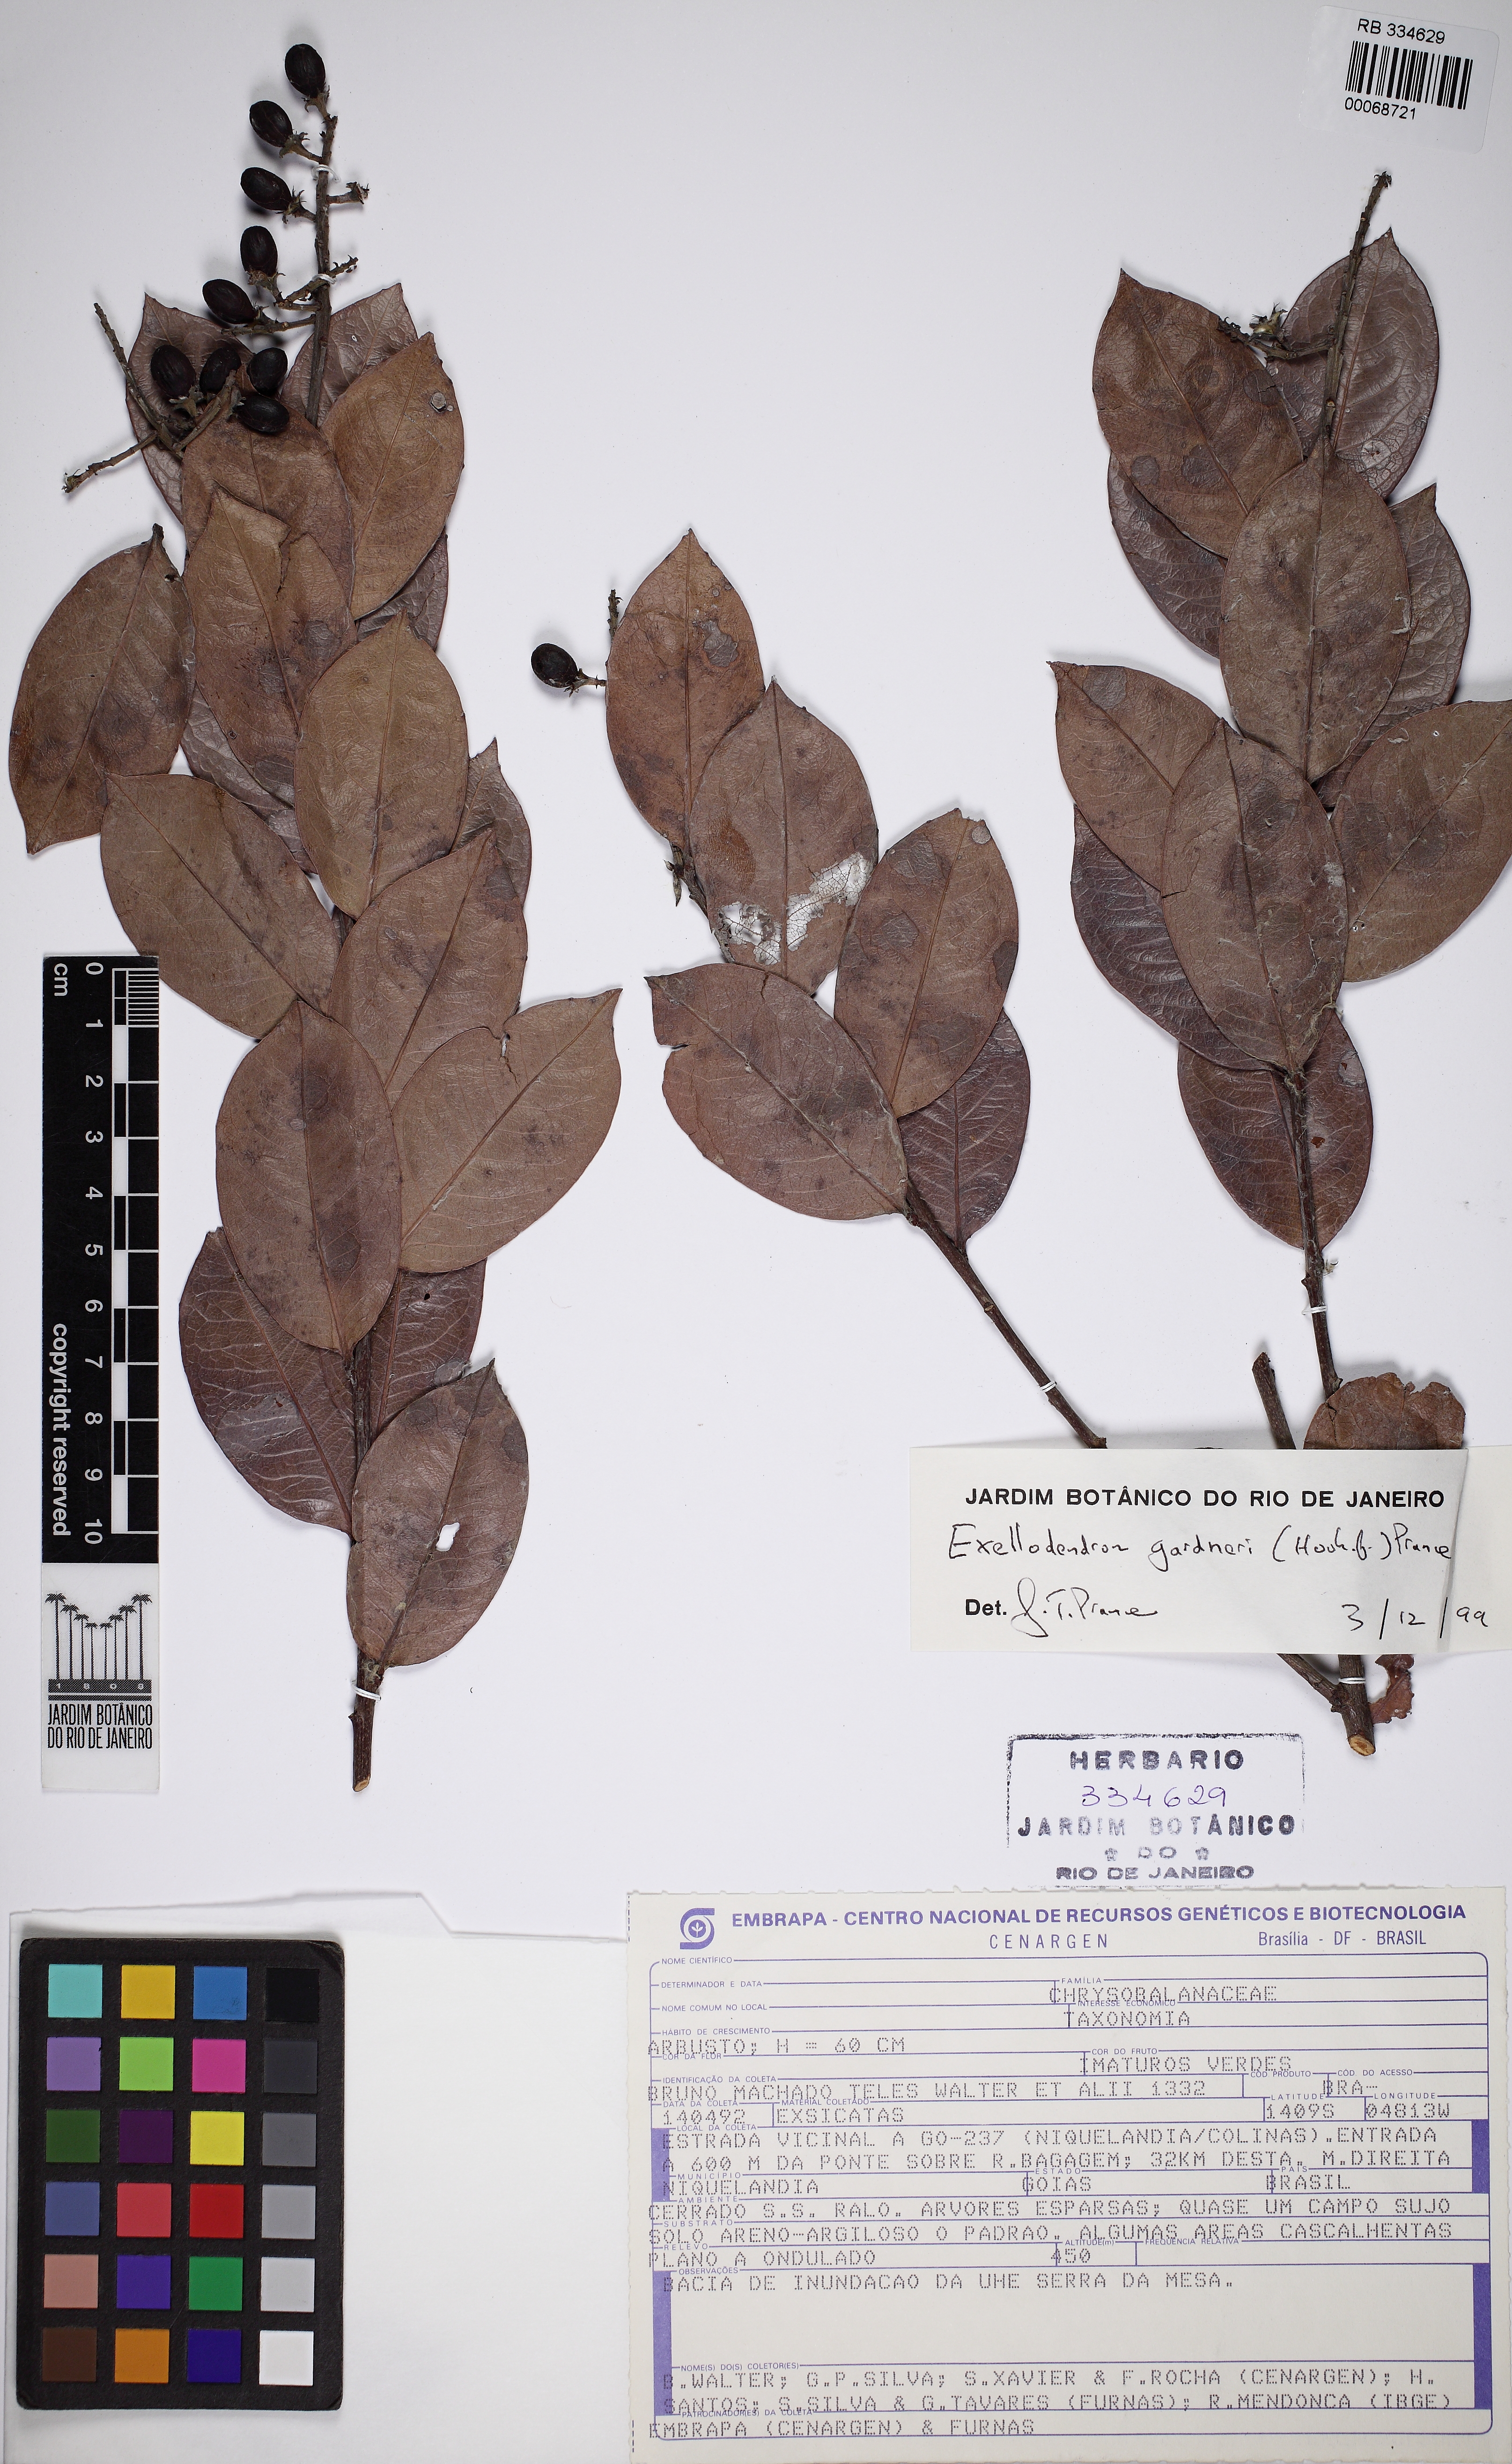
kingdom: Plantae
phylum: Tracheophyta
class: Magnoliopsida
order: Malpighiales
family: Chrysobalanaceae
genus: Exellodendron
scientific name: Exellodendron gardneri
